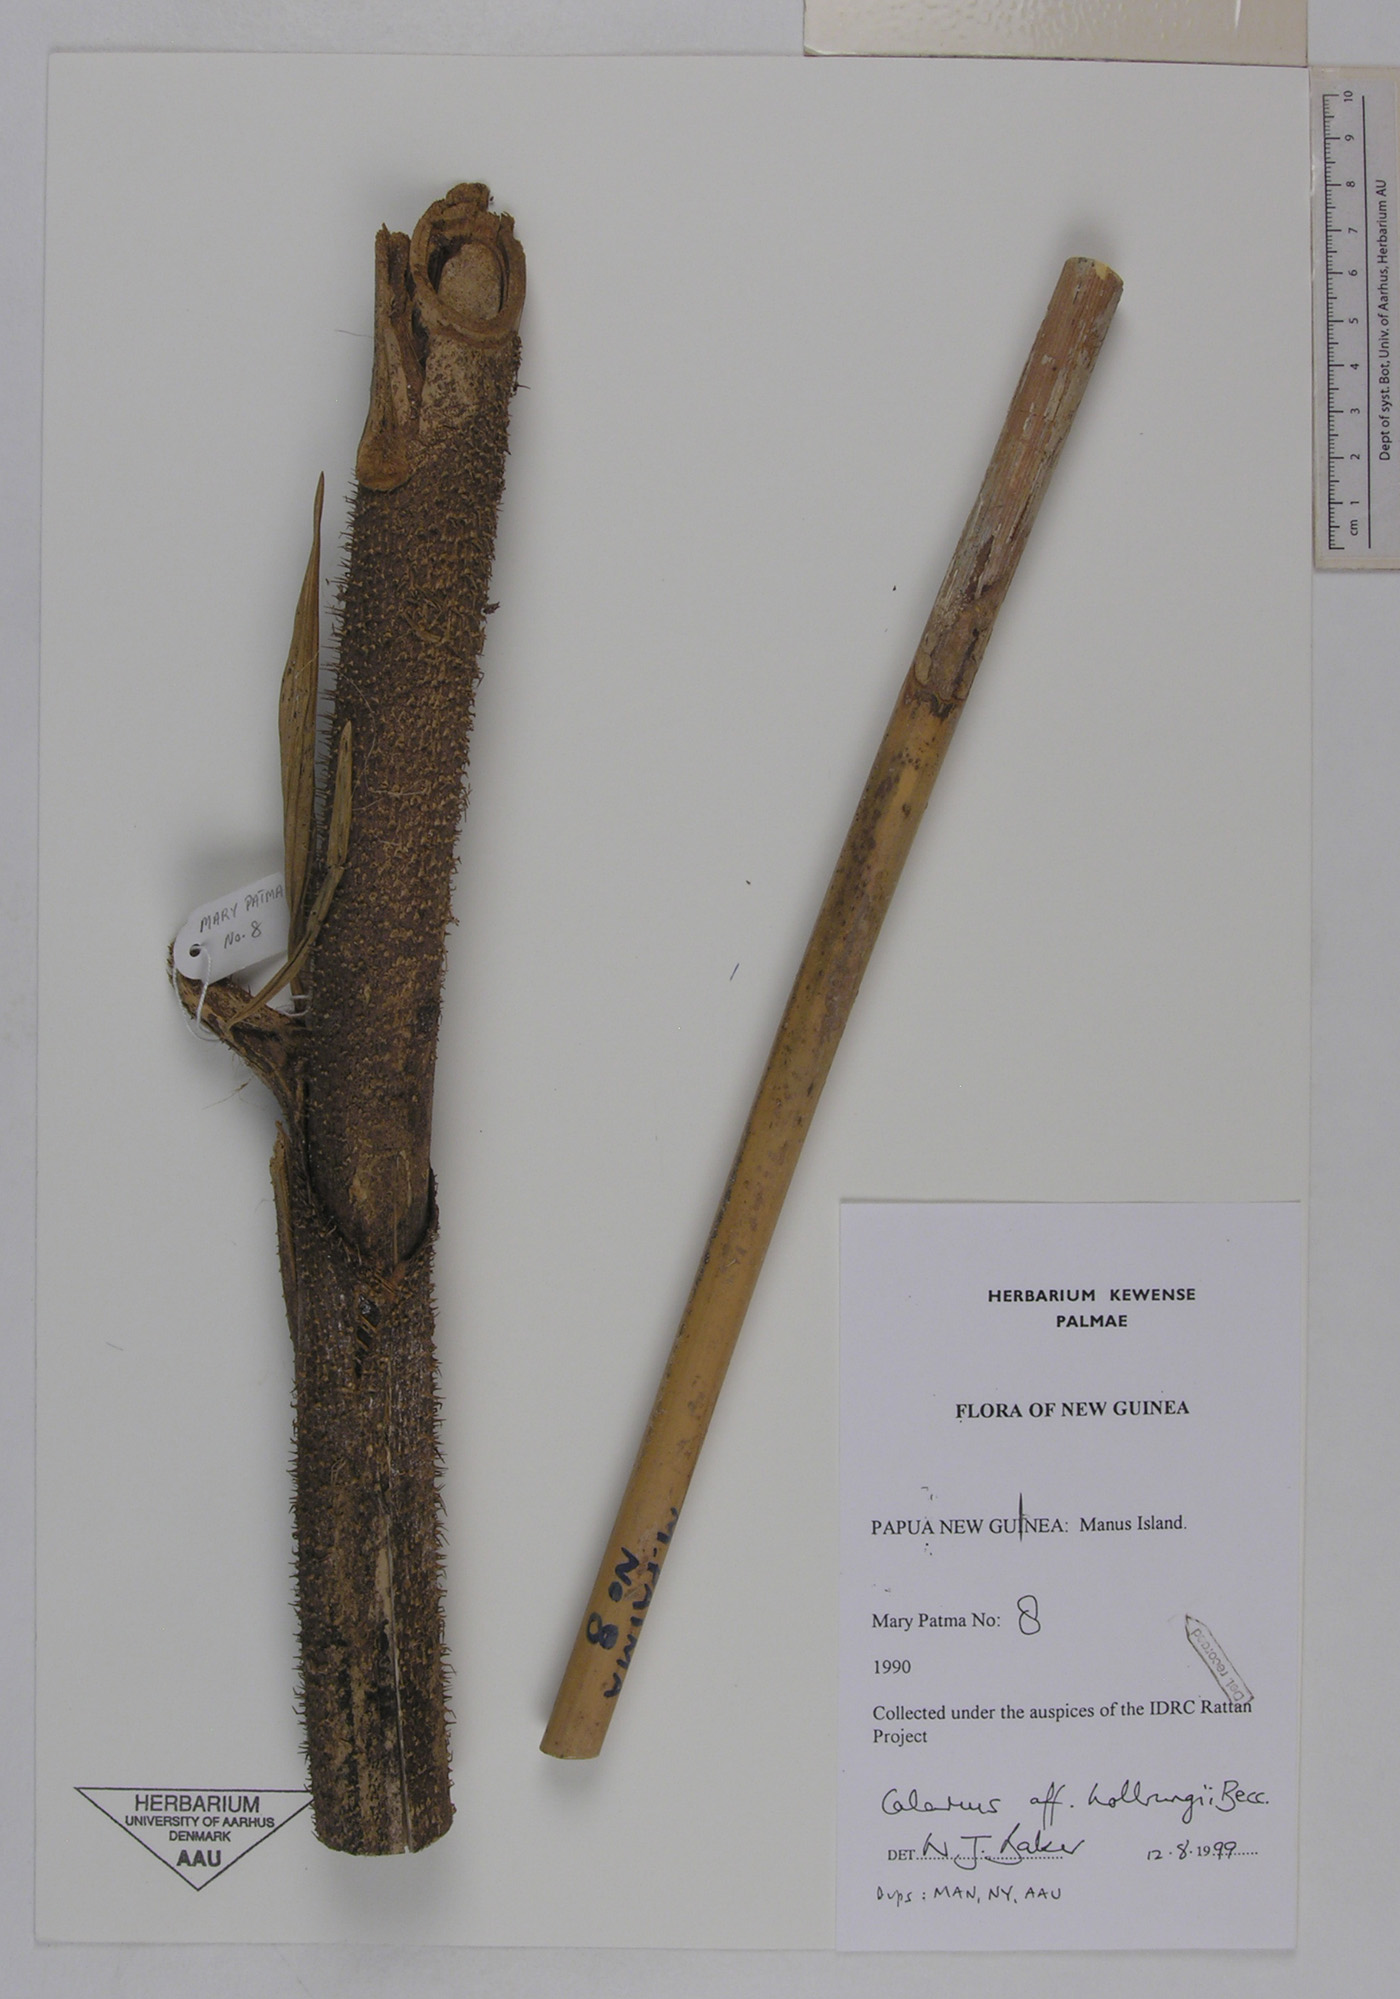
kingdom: Plantae
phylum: Tracheophyta
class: Liliopsida
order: Arecales
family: Arecaceae
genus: Calamus
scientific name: Calamus aruensis
